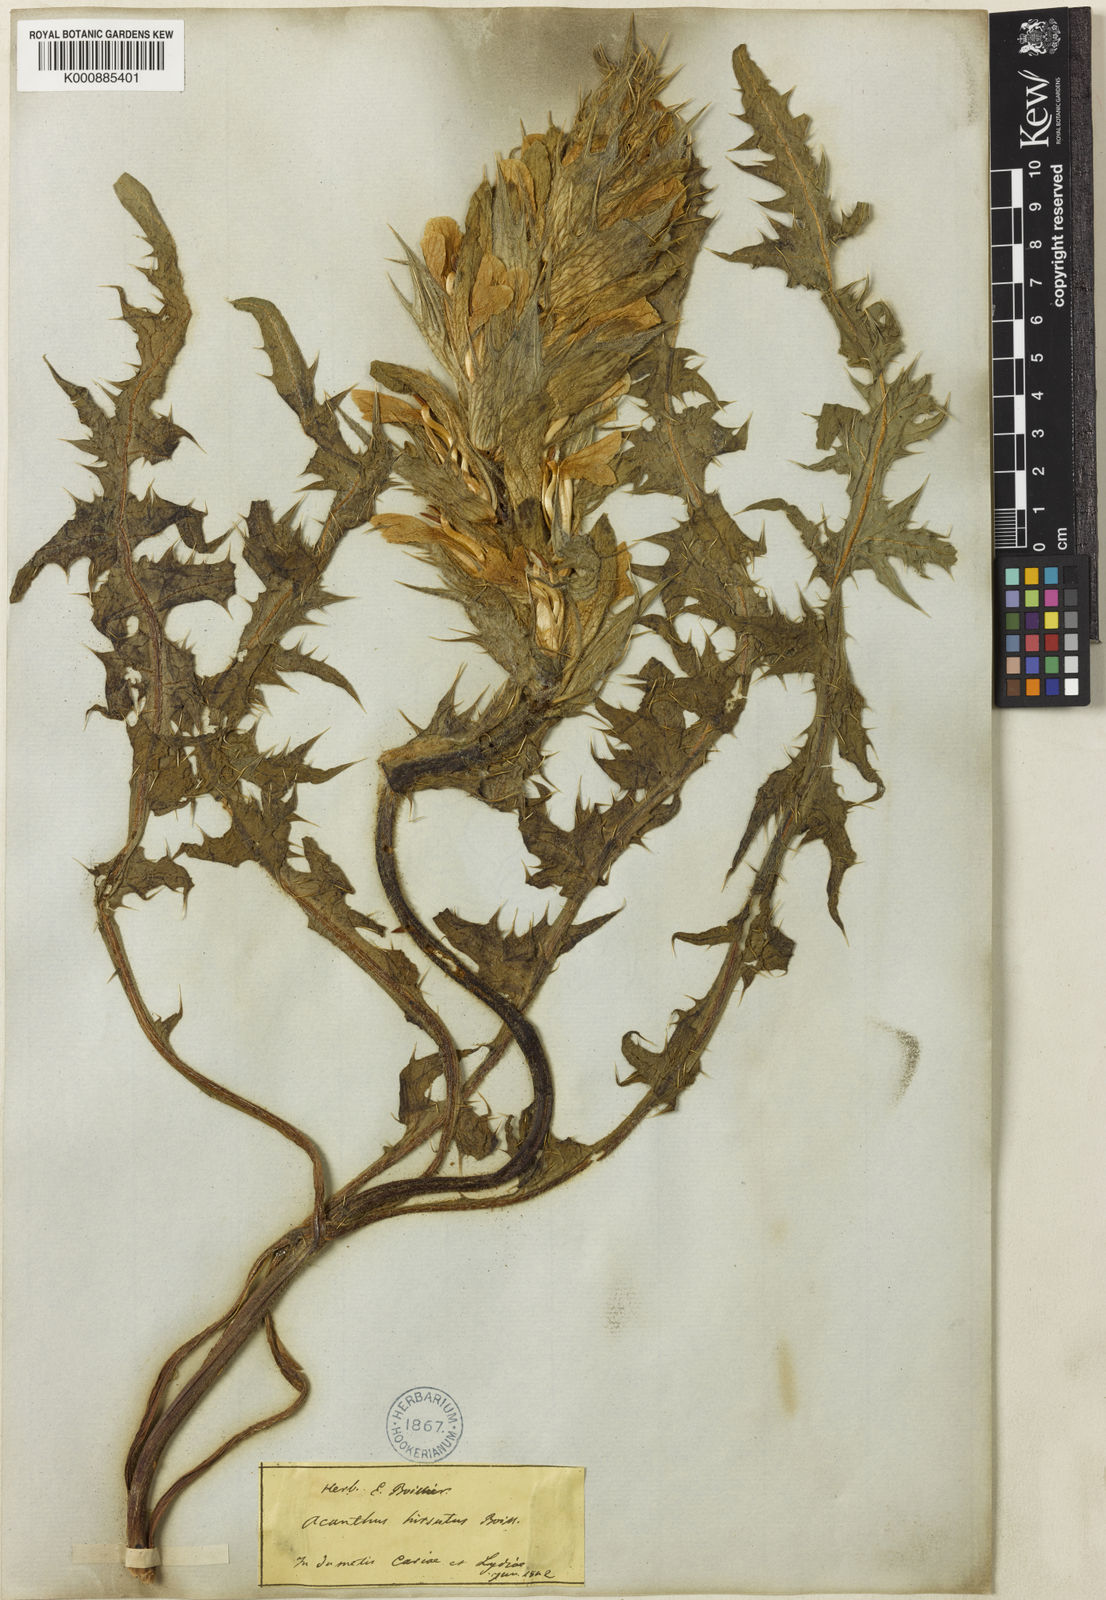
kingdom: Plantae
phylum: Tracheophyta
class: Magnoliopsida
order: Lamiales
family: Acanthaceae
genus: Acanthus
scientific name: Acanthus hirsutus
